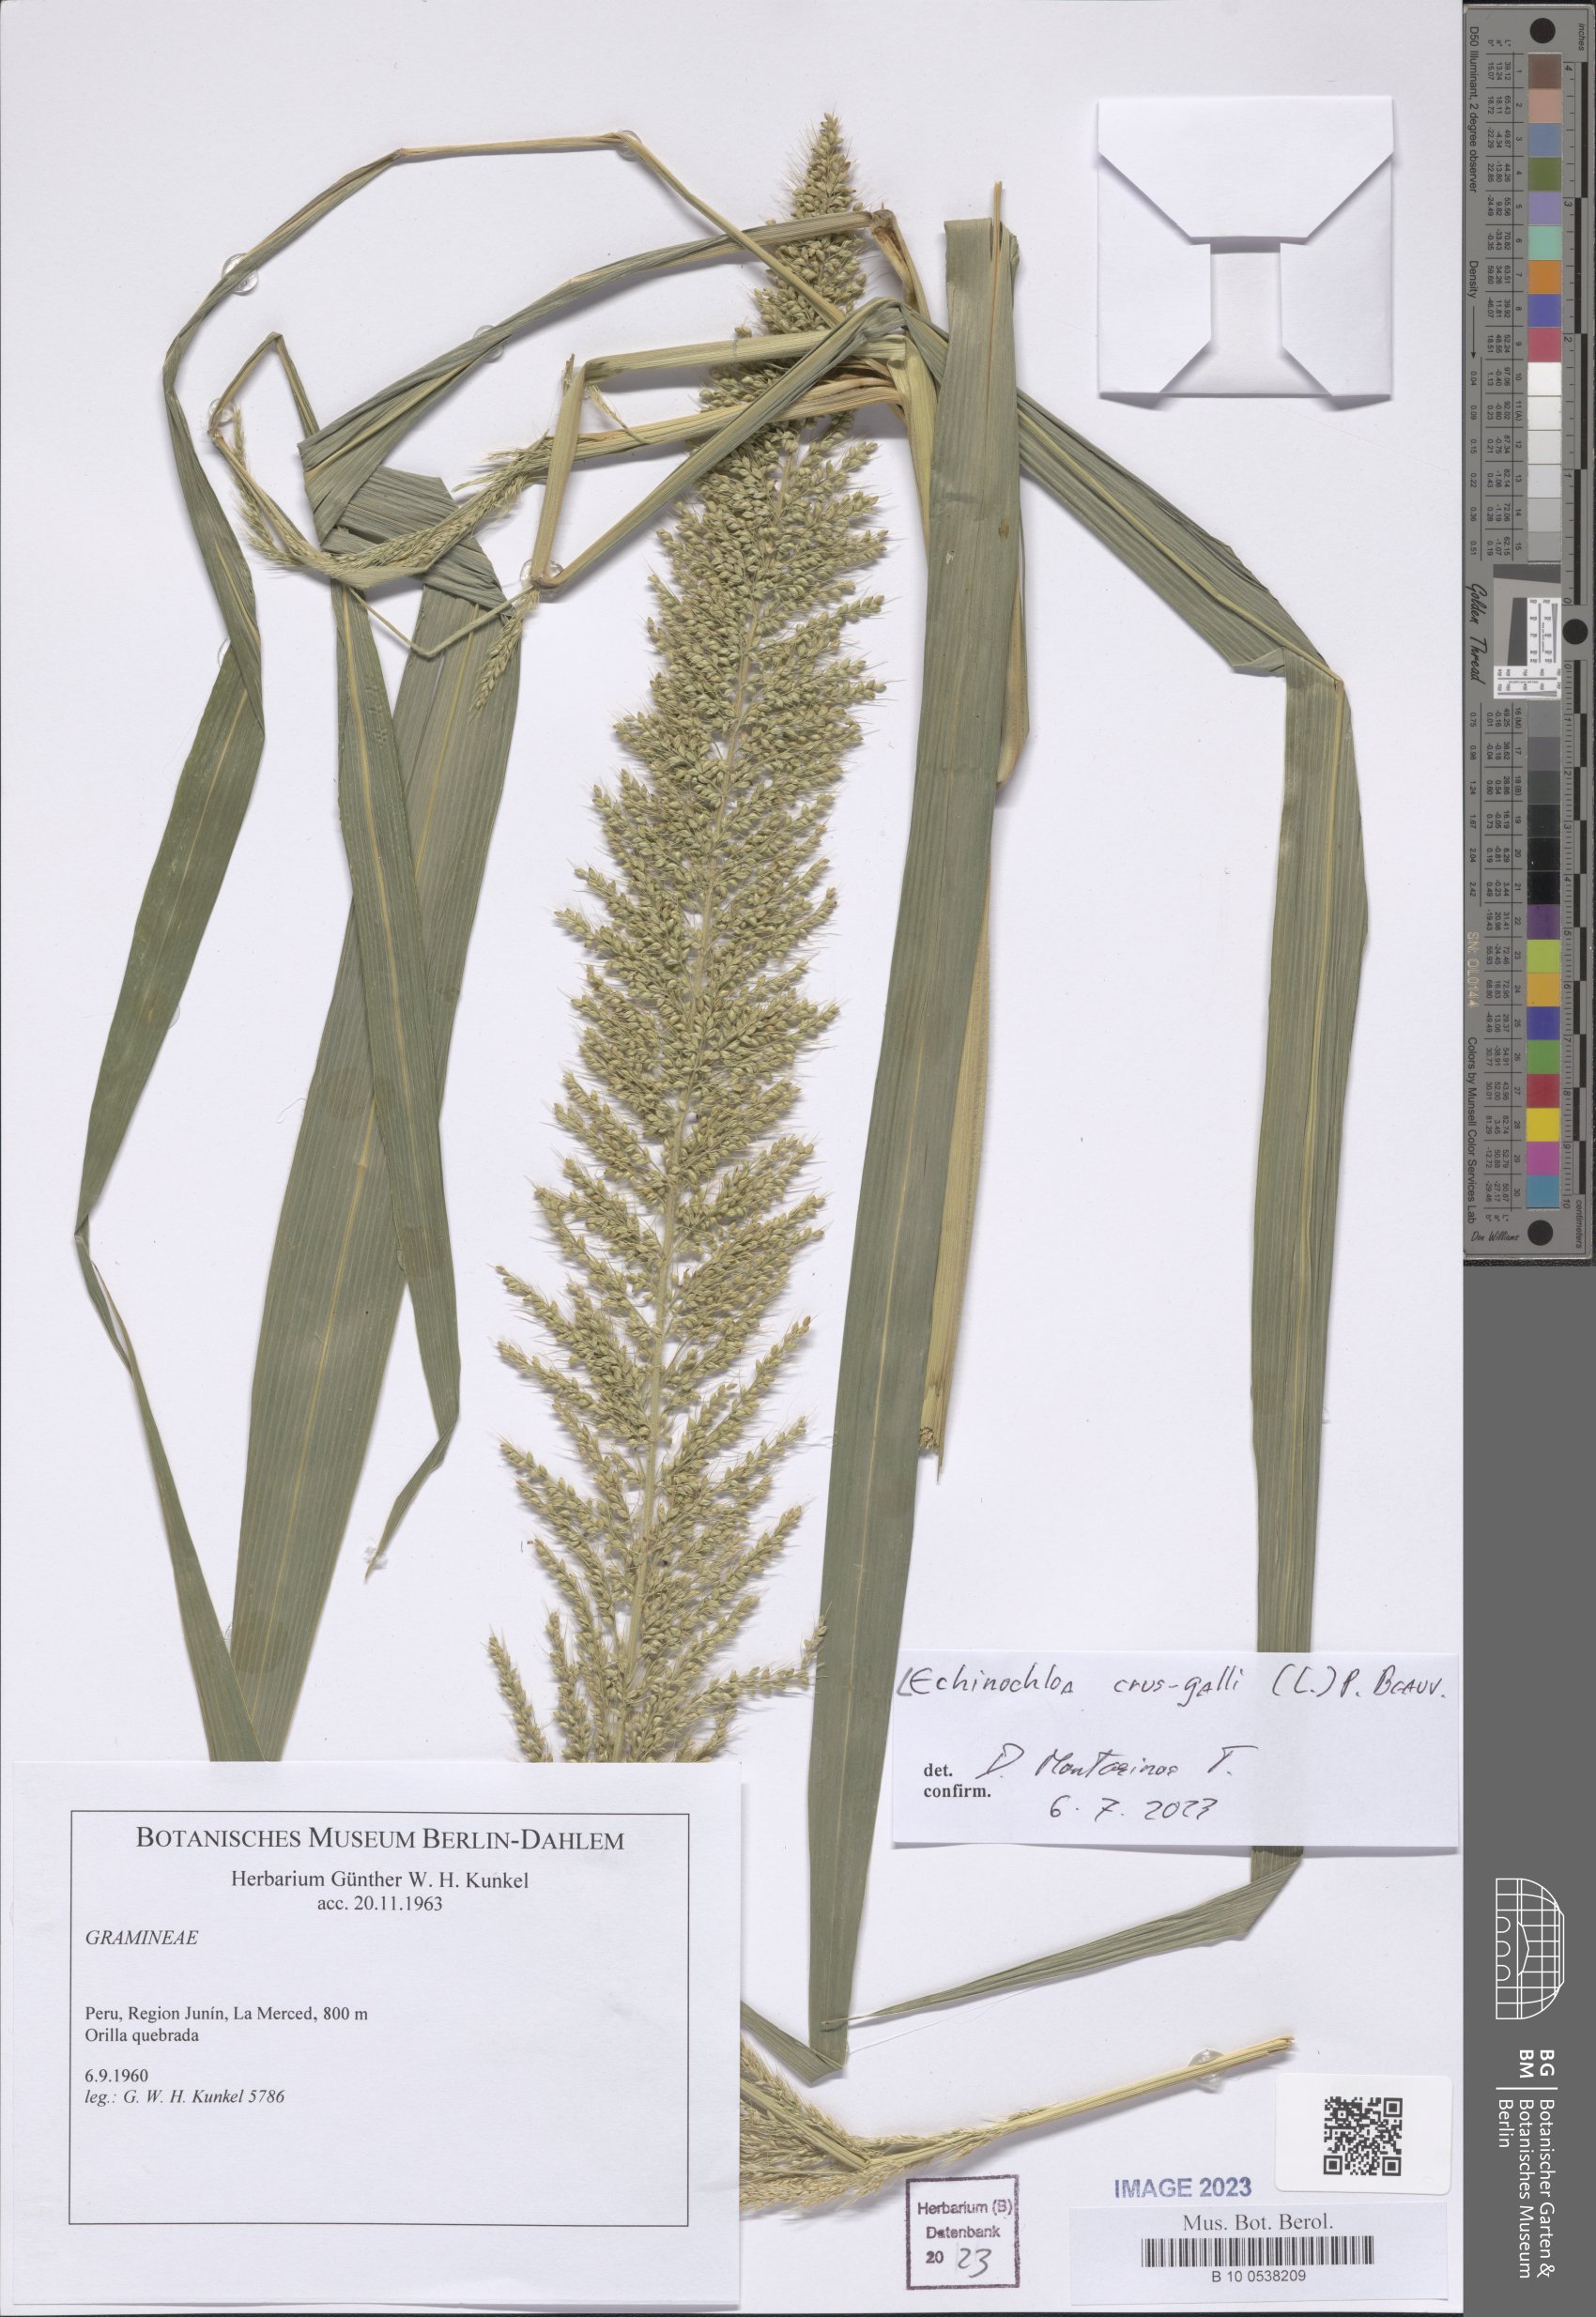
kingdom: Plantae
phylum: Tracheophyta
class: Liliopsida
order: Poales
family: Poaceae
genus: Echinochloa
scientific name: Echinochloa crus-galli
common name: Cockspur
